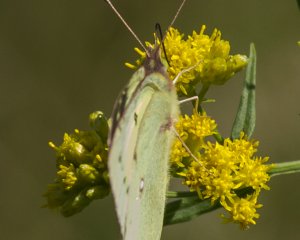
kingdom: Animalia
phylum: Arthropoda
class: Insecta
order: Lepidoptera
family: Pieridae
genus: Colias
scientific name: Colias philodice
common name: Clouded Sulphur
